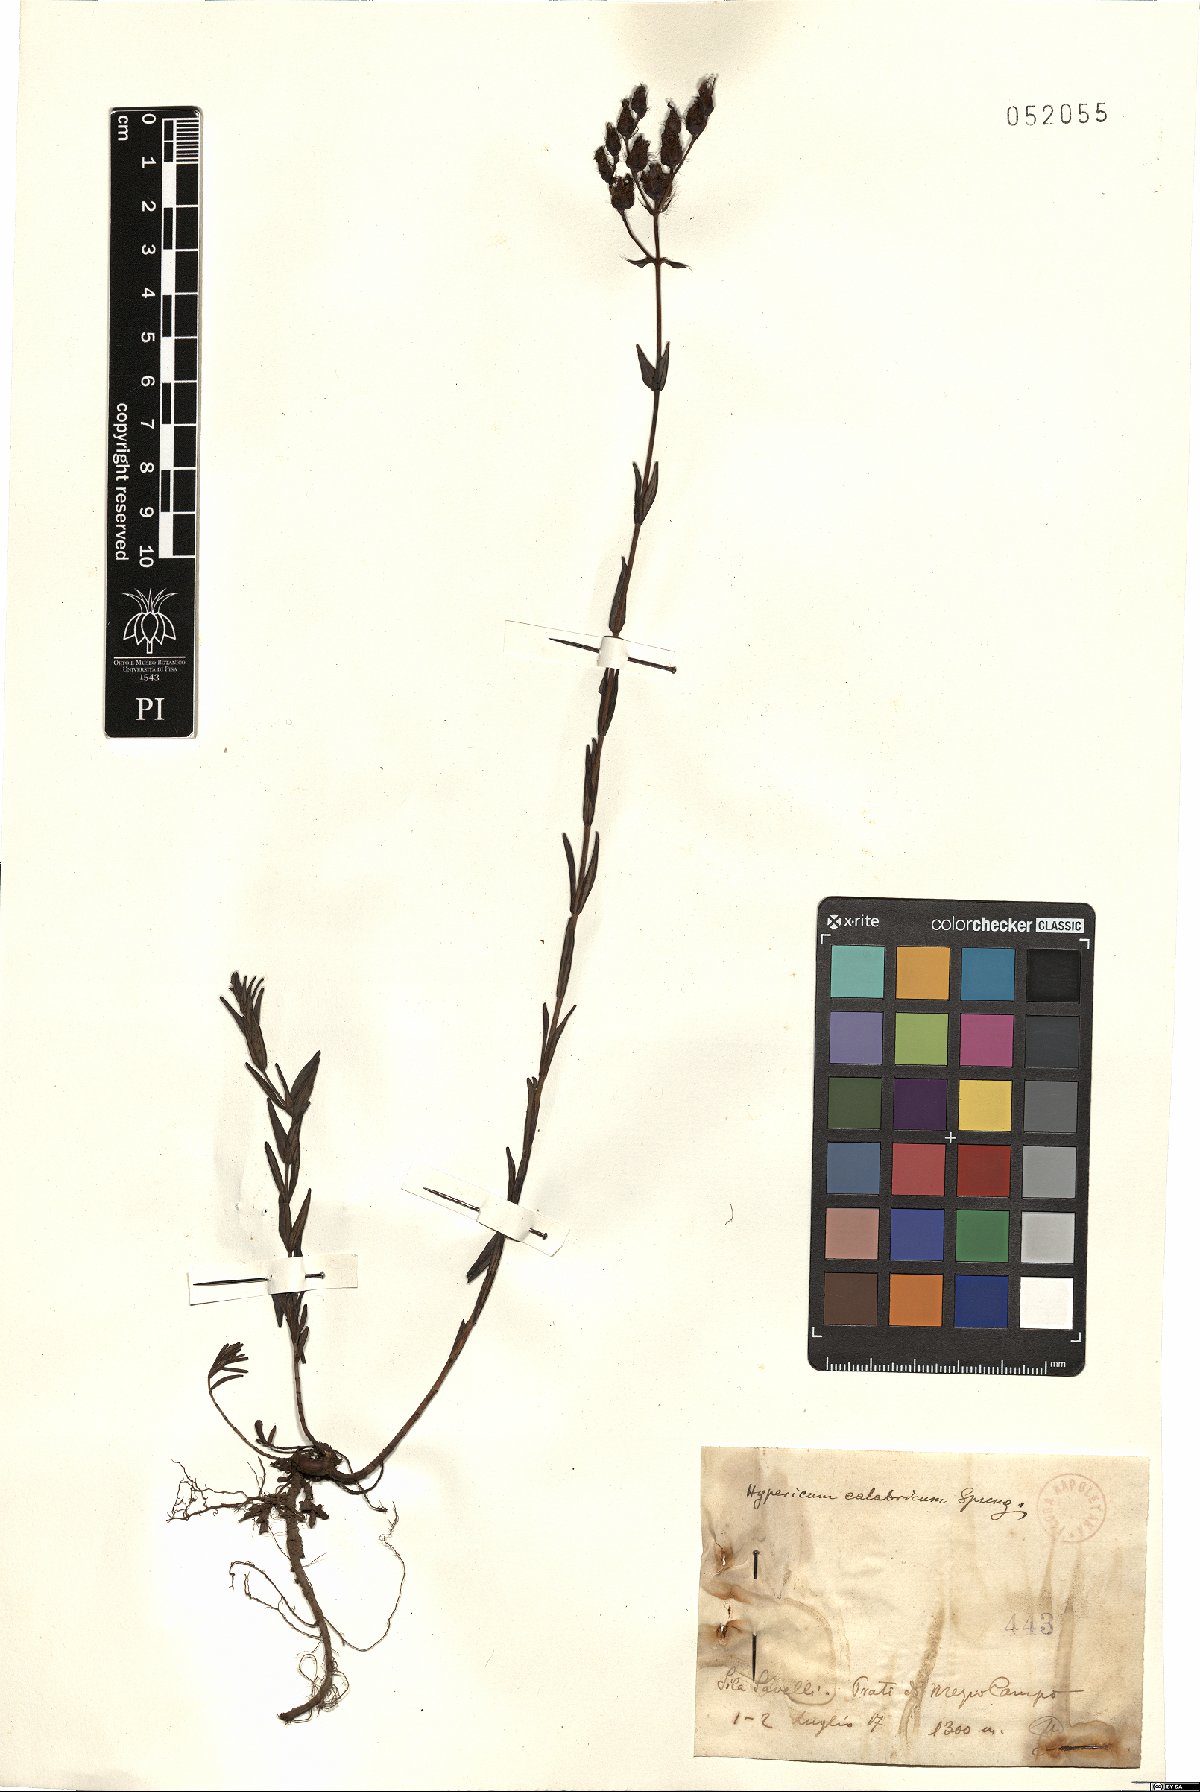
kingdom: Plantae
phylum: Tracheophyta
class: Magnoliopsida
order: Malpighiales
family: Hypericaceae
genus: Hypericum
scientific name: Hypericum barbatum
